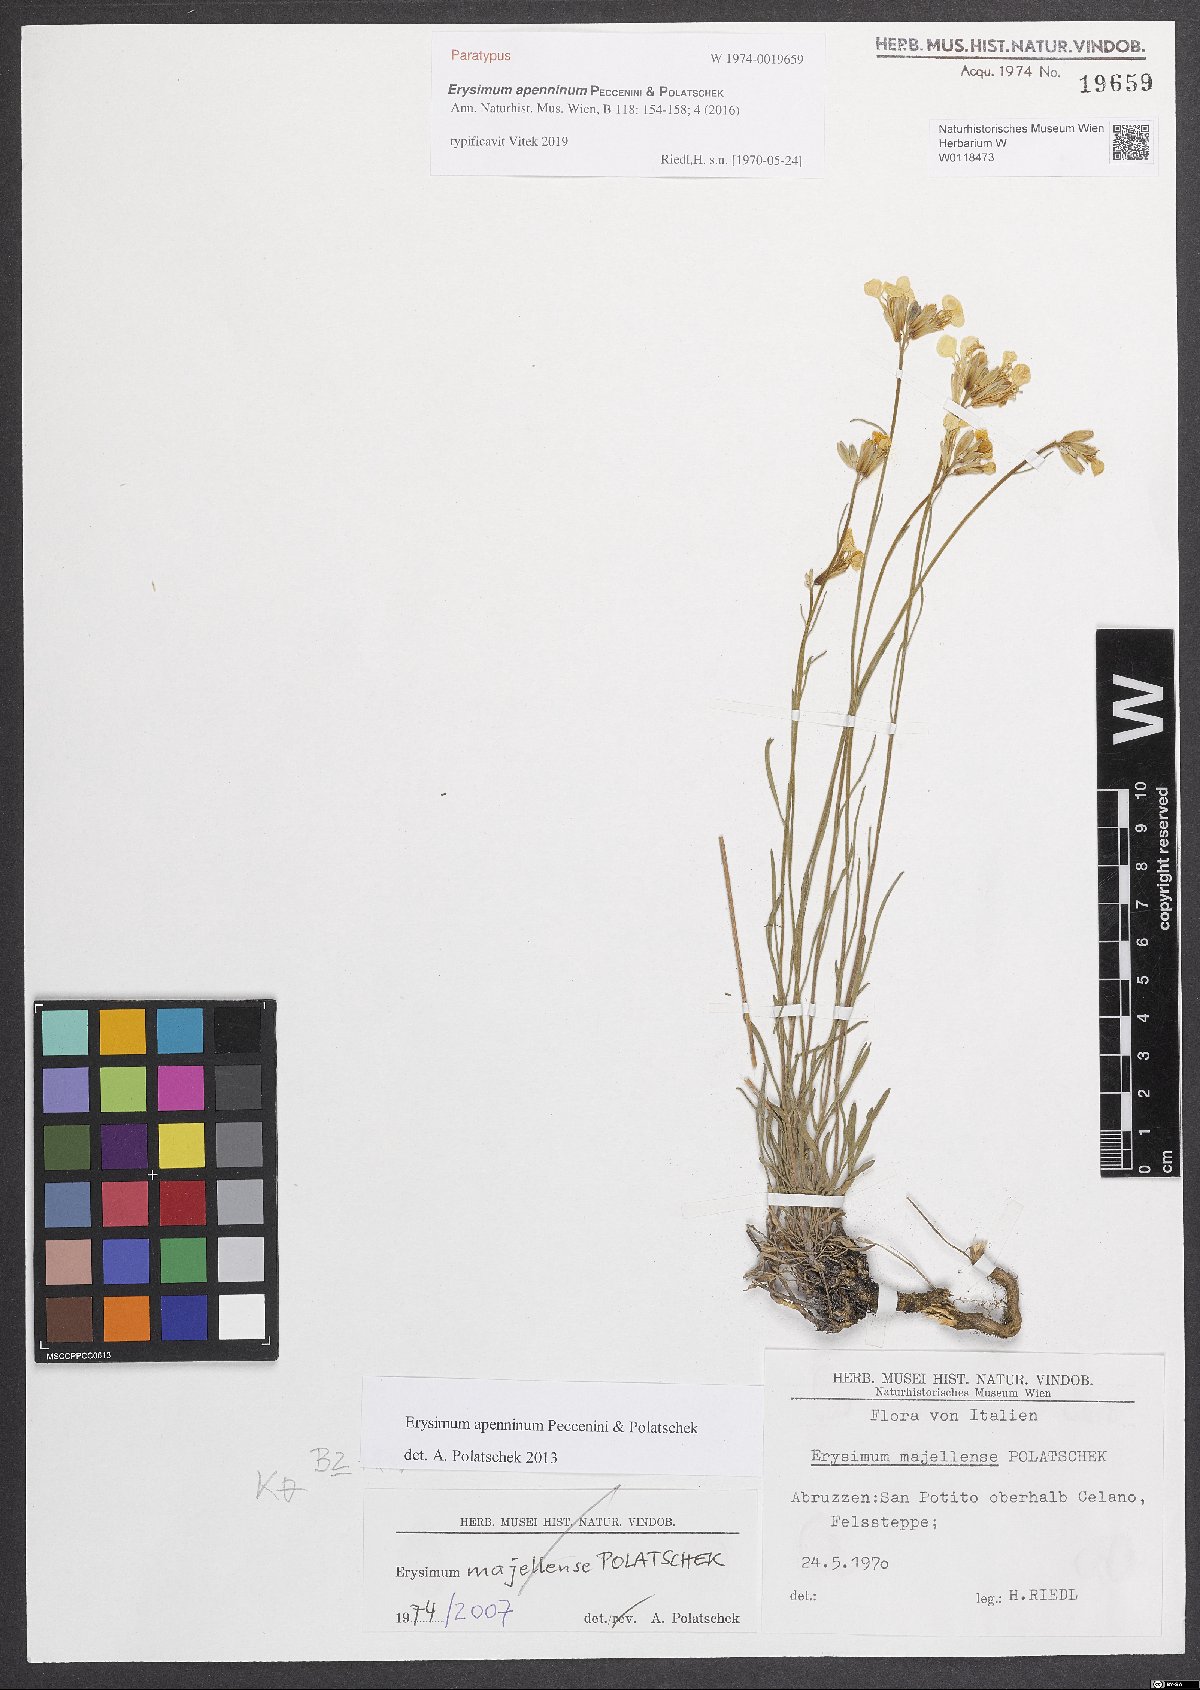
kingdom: Plantae
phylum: Tracheophyta
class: Magnoliopsida
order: Brassicales
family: Brassicaceae
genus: Erysimum
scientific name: Erysimum apenninum
